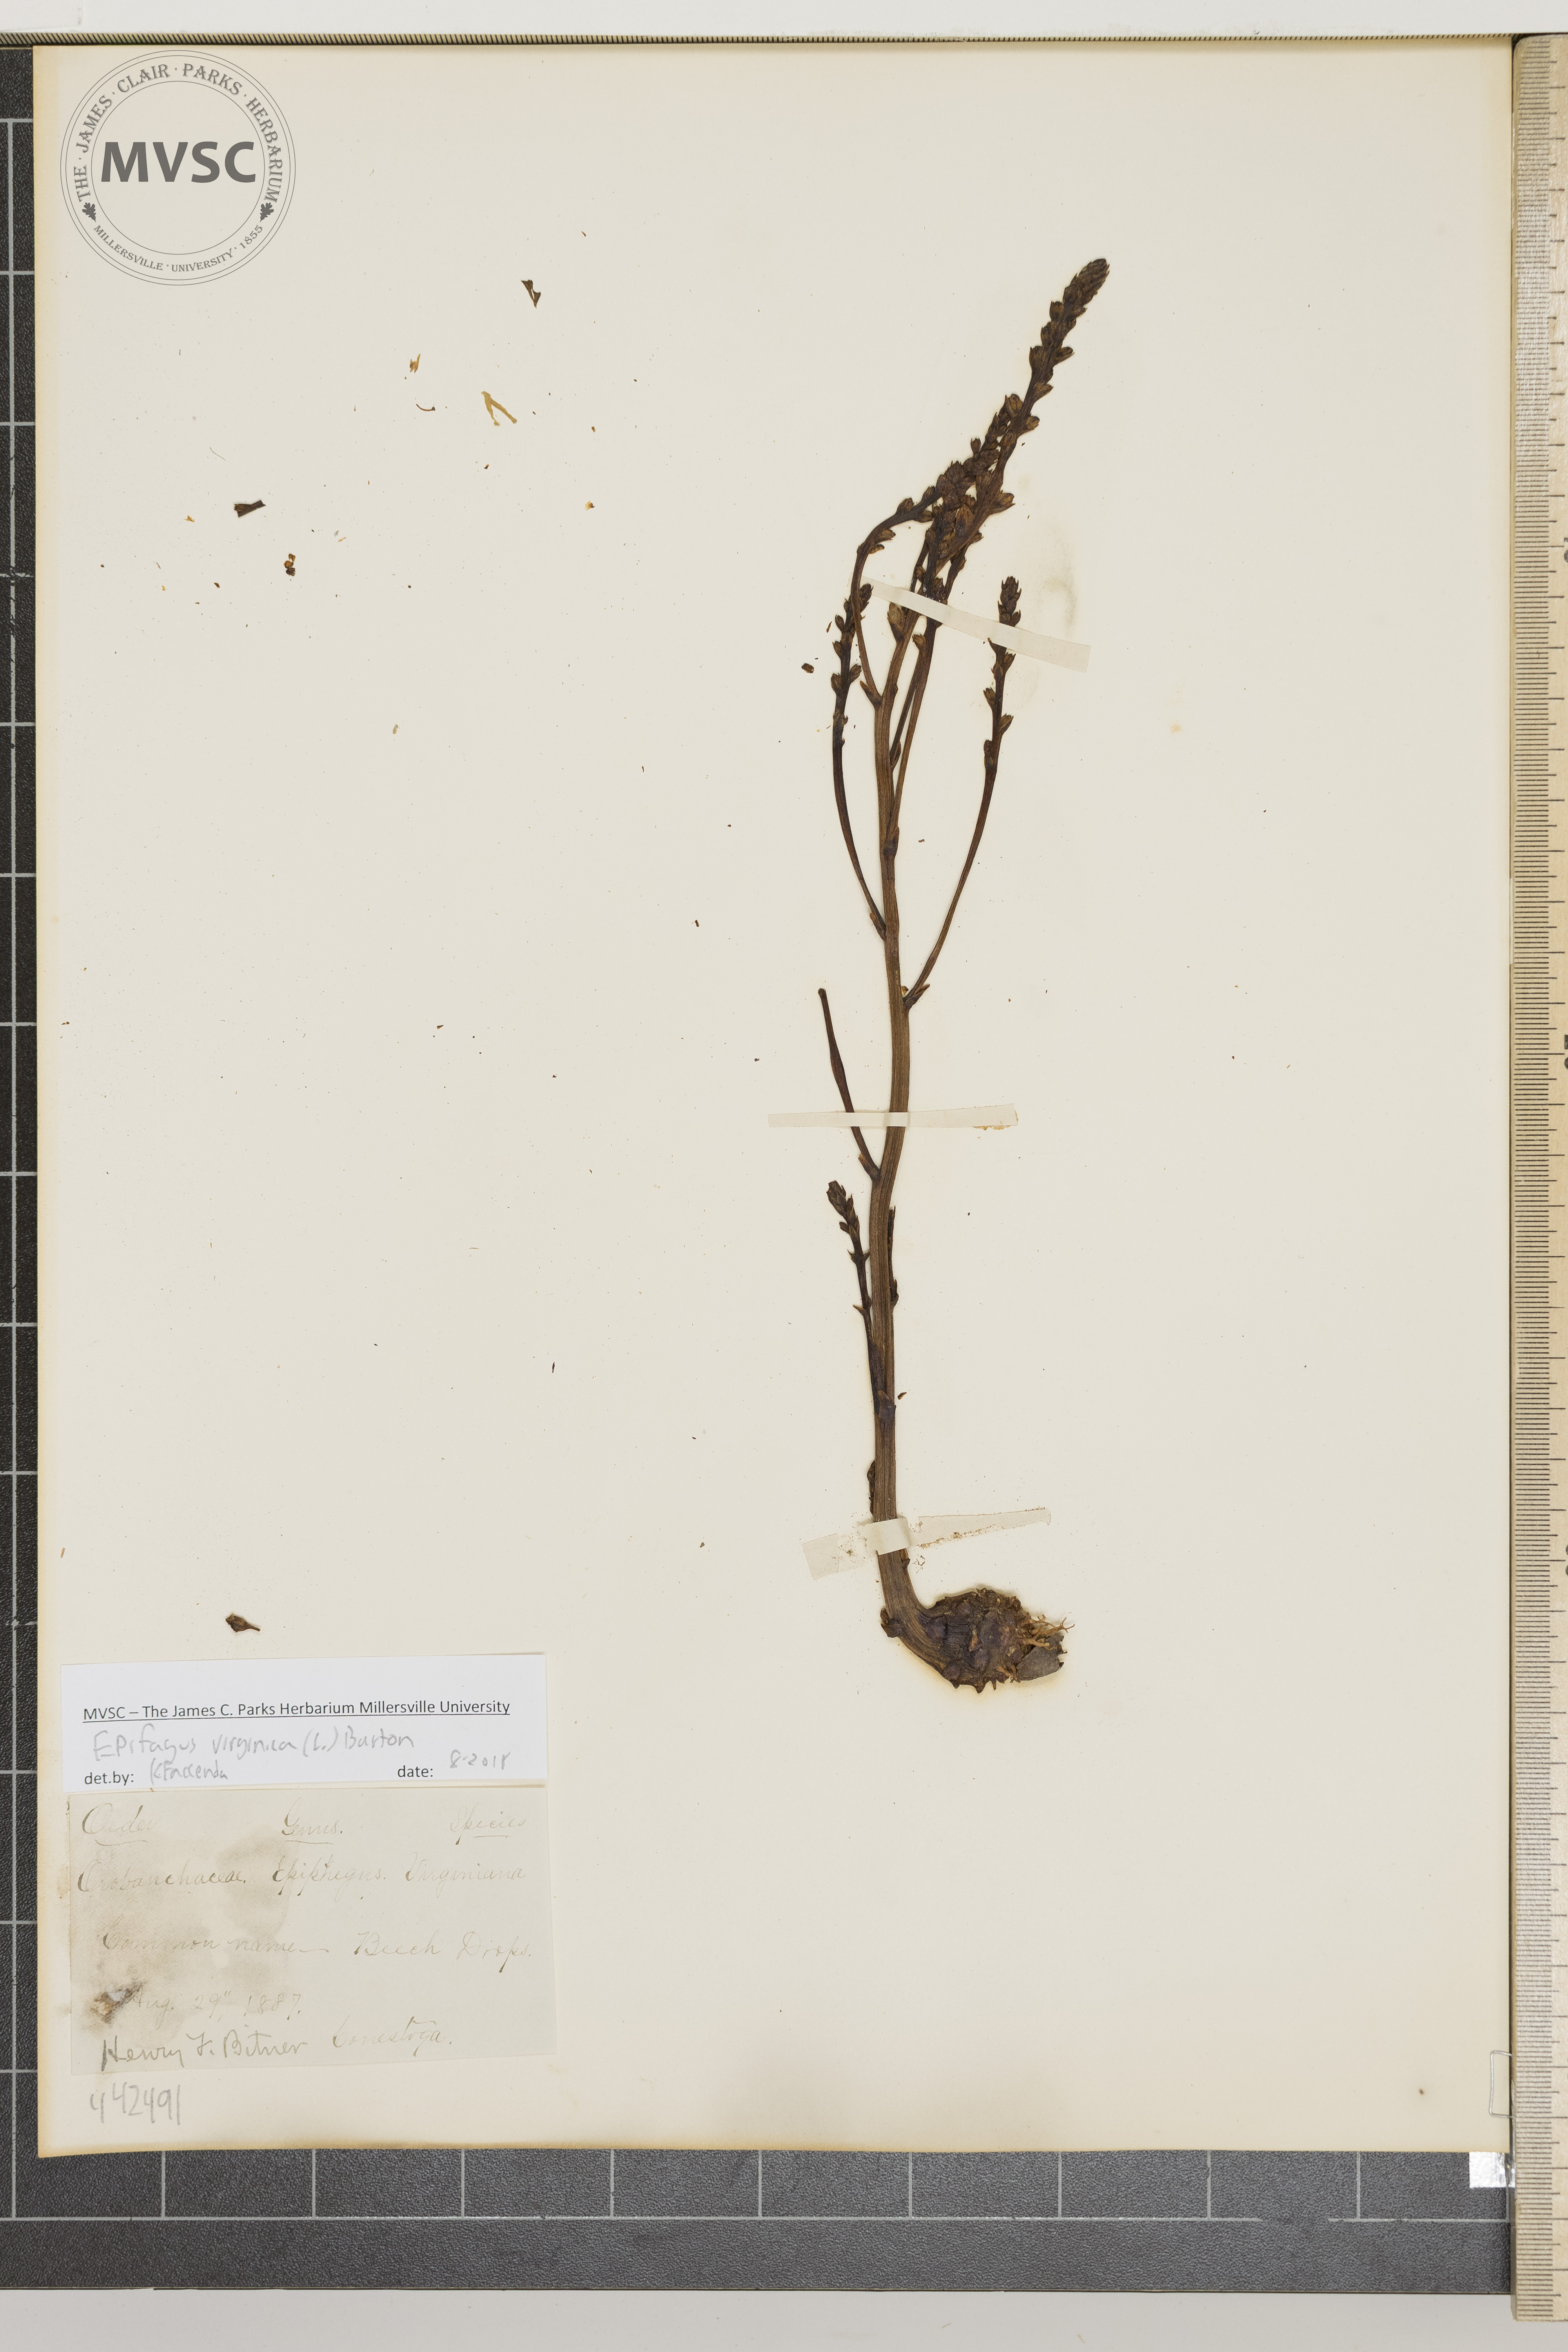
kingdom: Plantae
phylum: Tracheophyta
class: Magnoliopsida
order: Lamiales
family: Orobanchaceae
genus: Epifagus
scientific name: Epifagus virginiana
